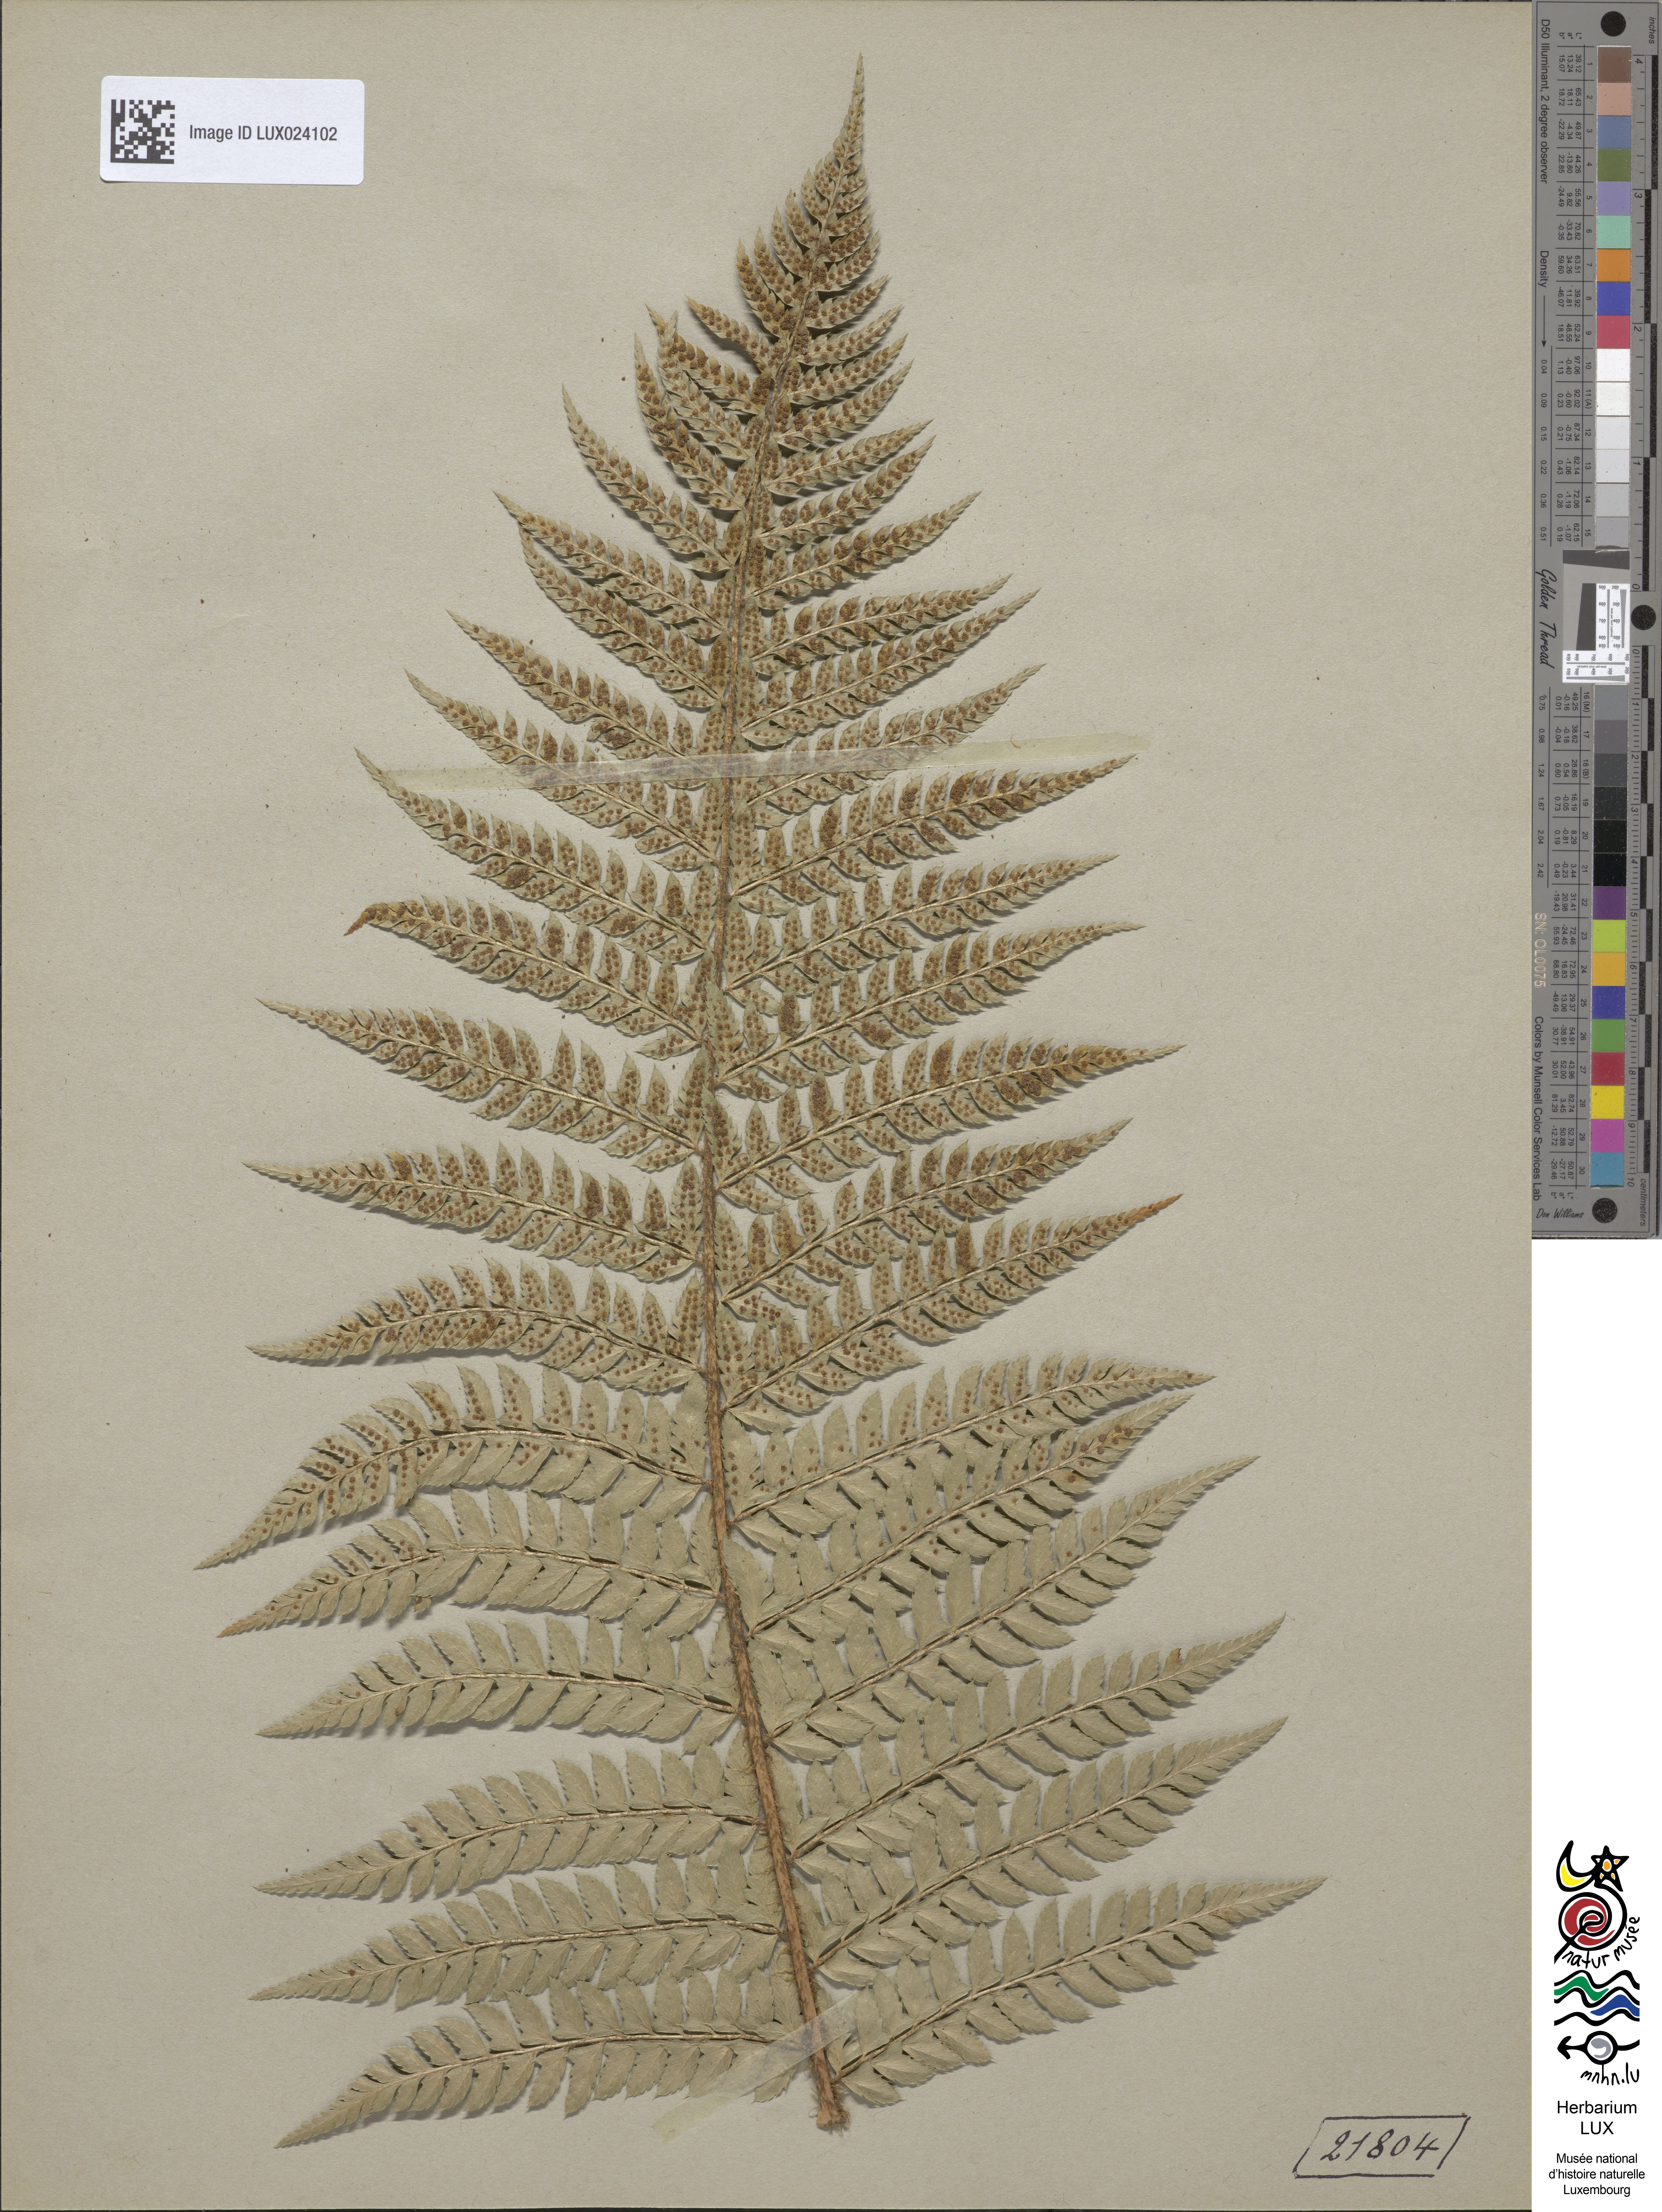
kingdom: Plantae
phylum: Tracheophyta
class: Polypodiopsida
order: Polypodiales
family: Dryopteridaceae
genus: Polystichum
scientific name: Polystichum aculeatum
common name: Hard shield-fern
